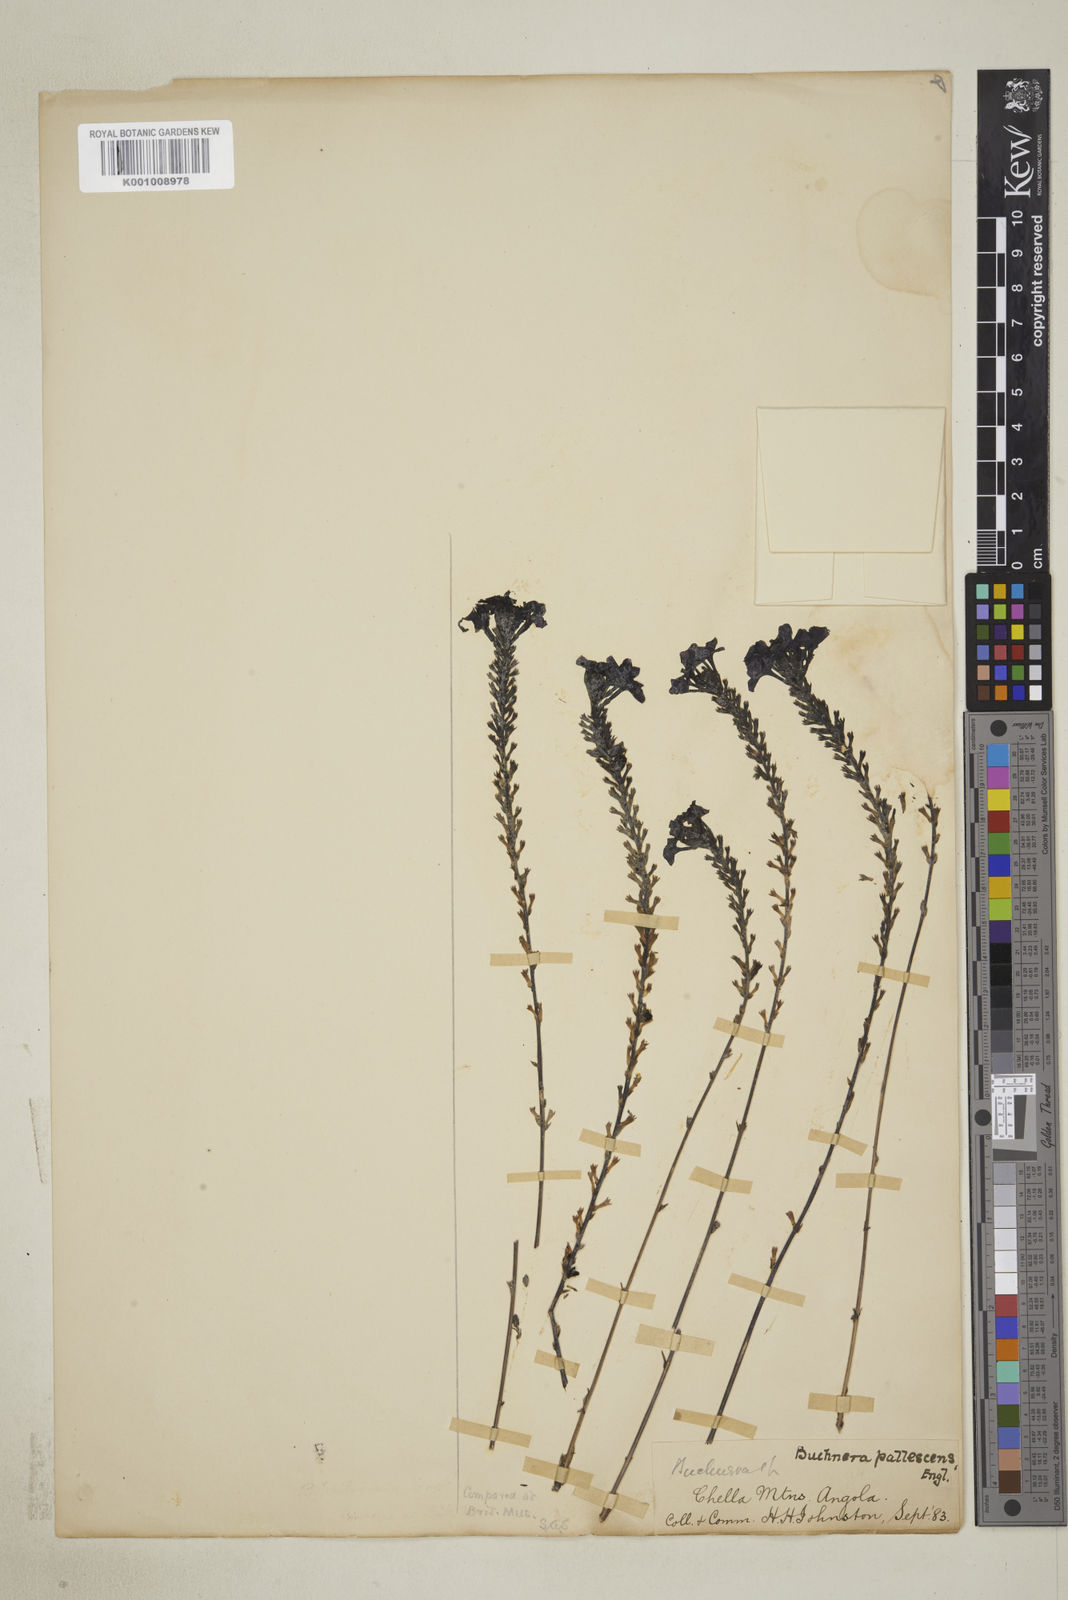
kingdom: Plantae
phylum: Tracheophyta
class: Magnoliopsida
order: Lamiales
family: Orobanchaceae
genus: Buchnera
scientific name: Buchnera pallescens
